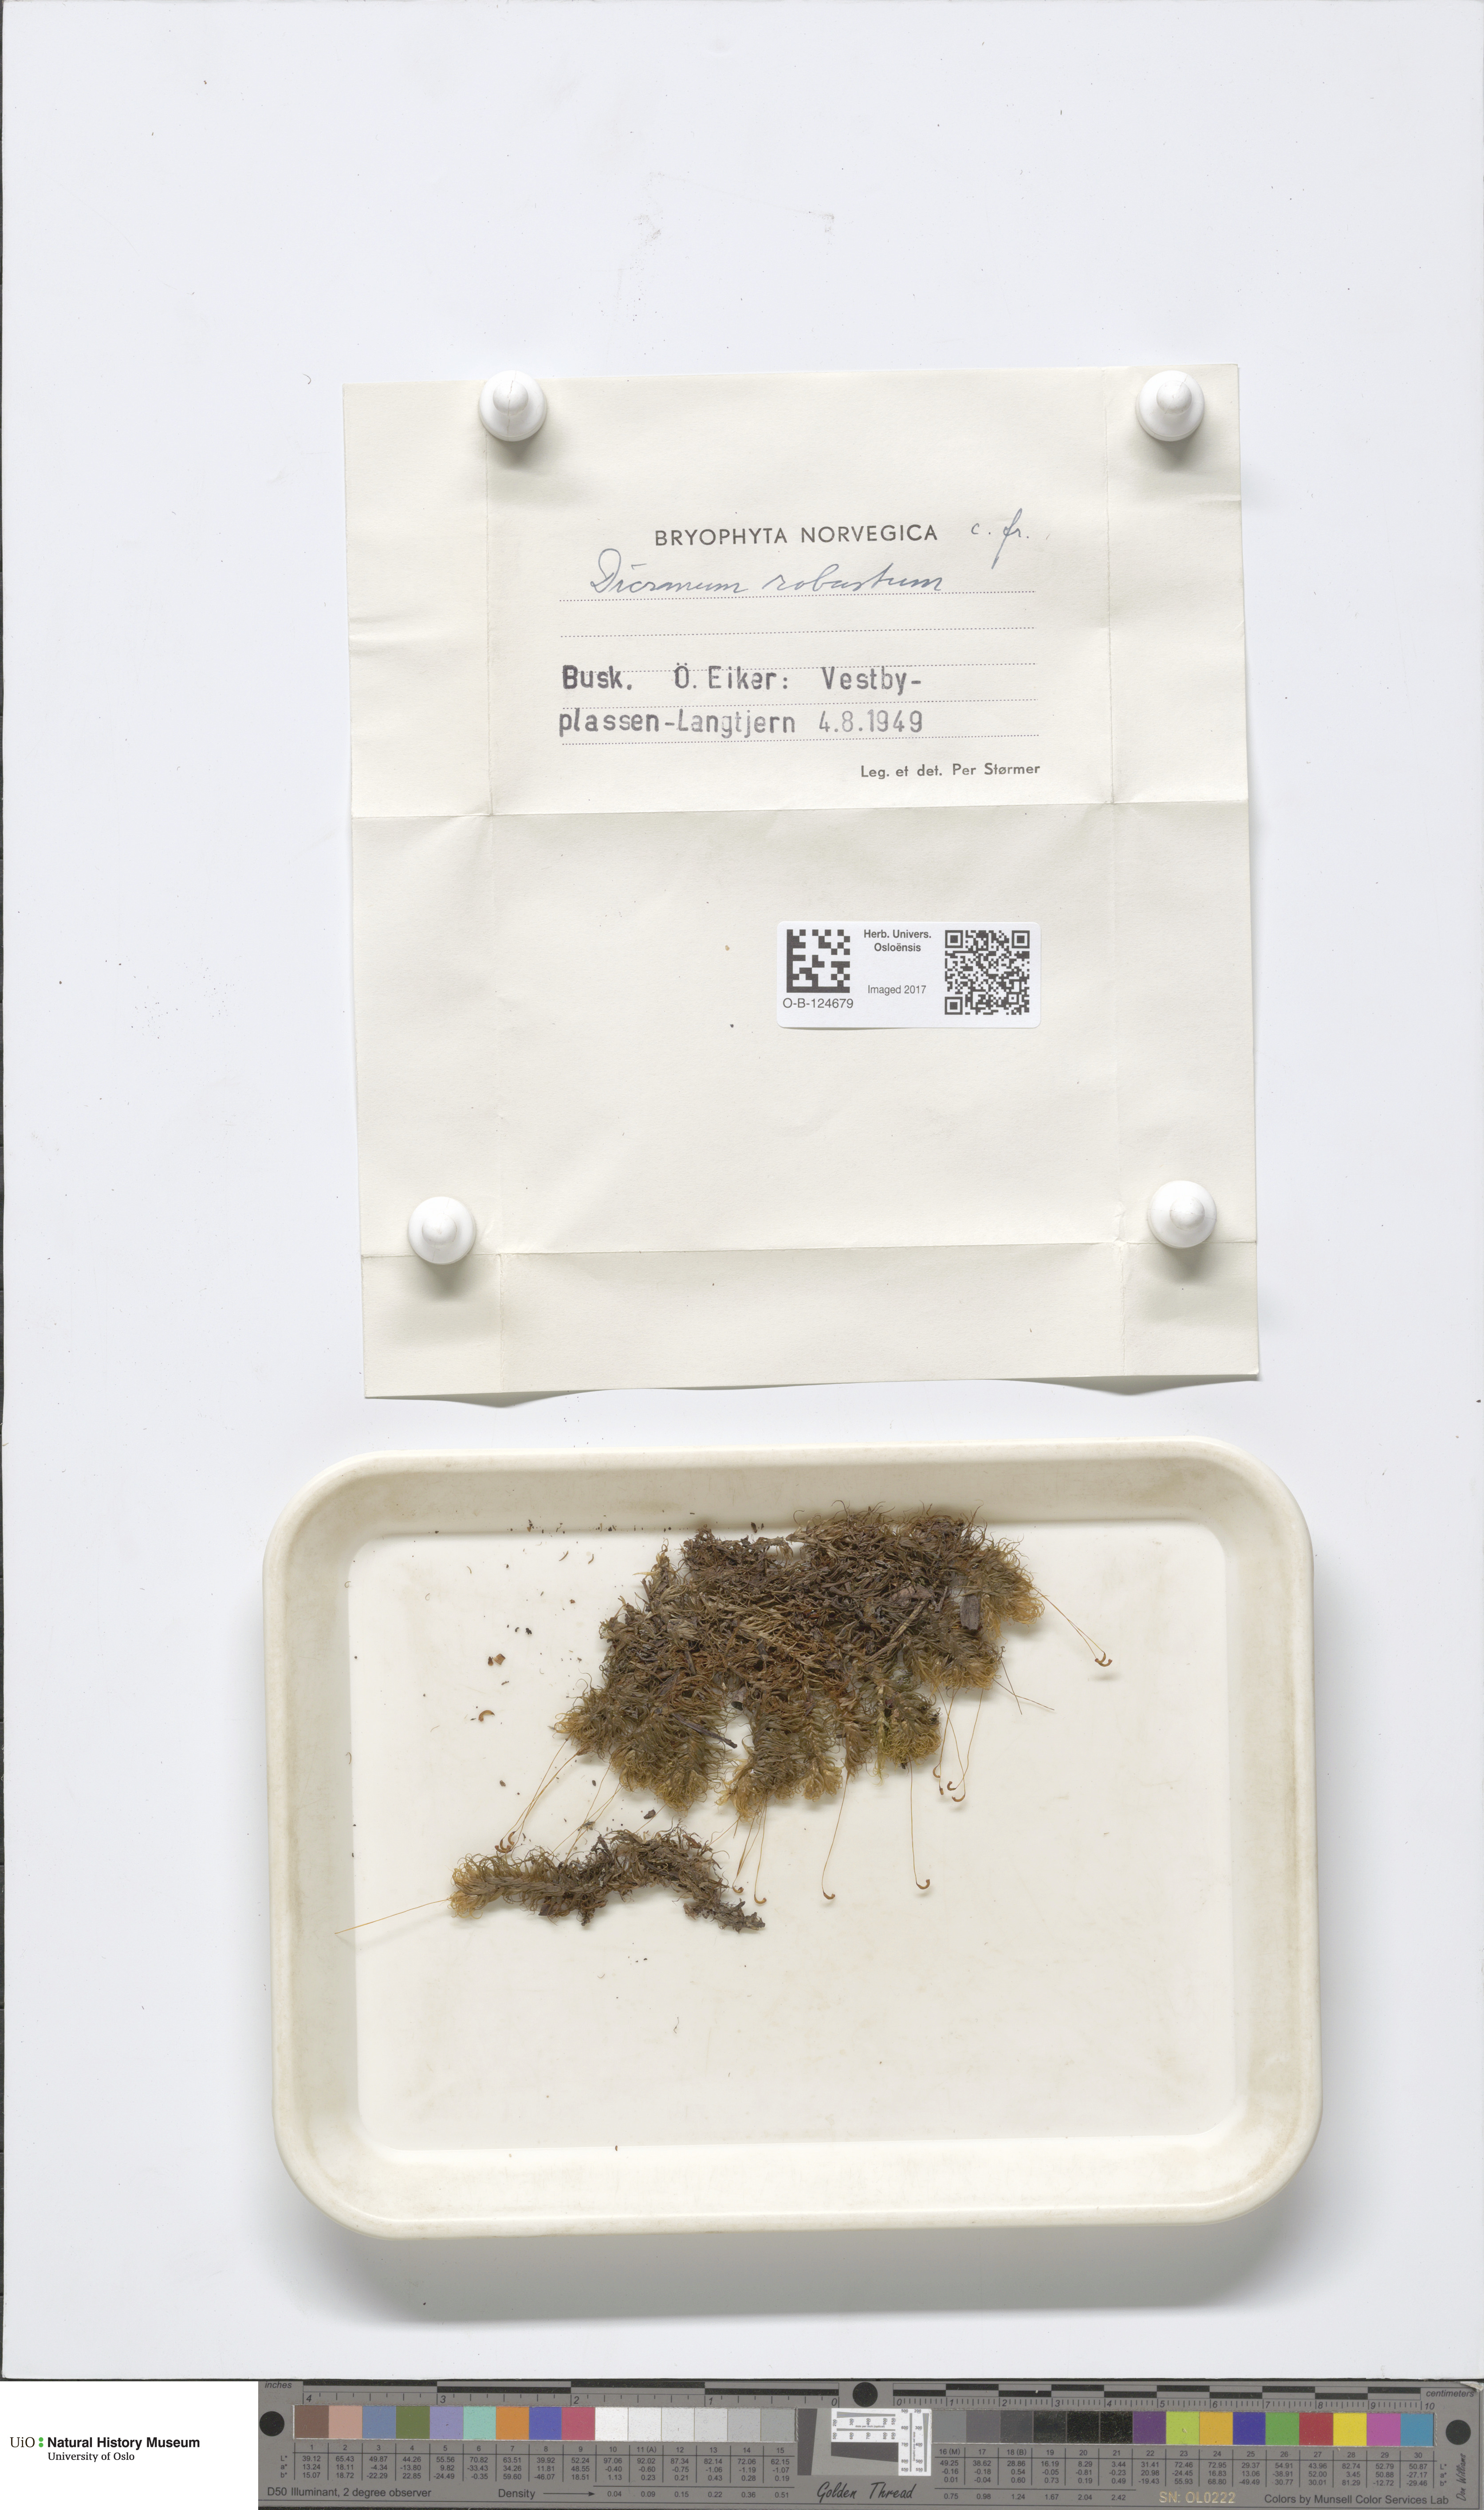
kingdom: Plantae
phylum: Bryophyta
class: Bryopsida
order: Dicranales
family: Dicranaceae
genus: Dicranum
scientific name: Dicranum drummondii
